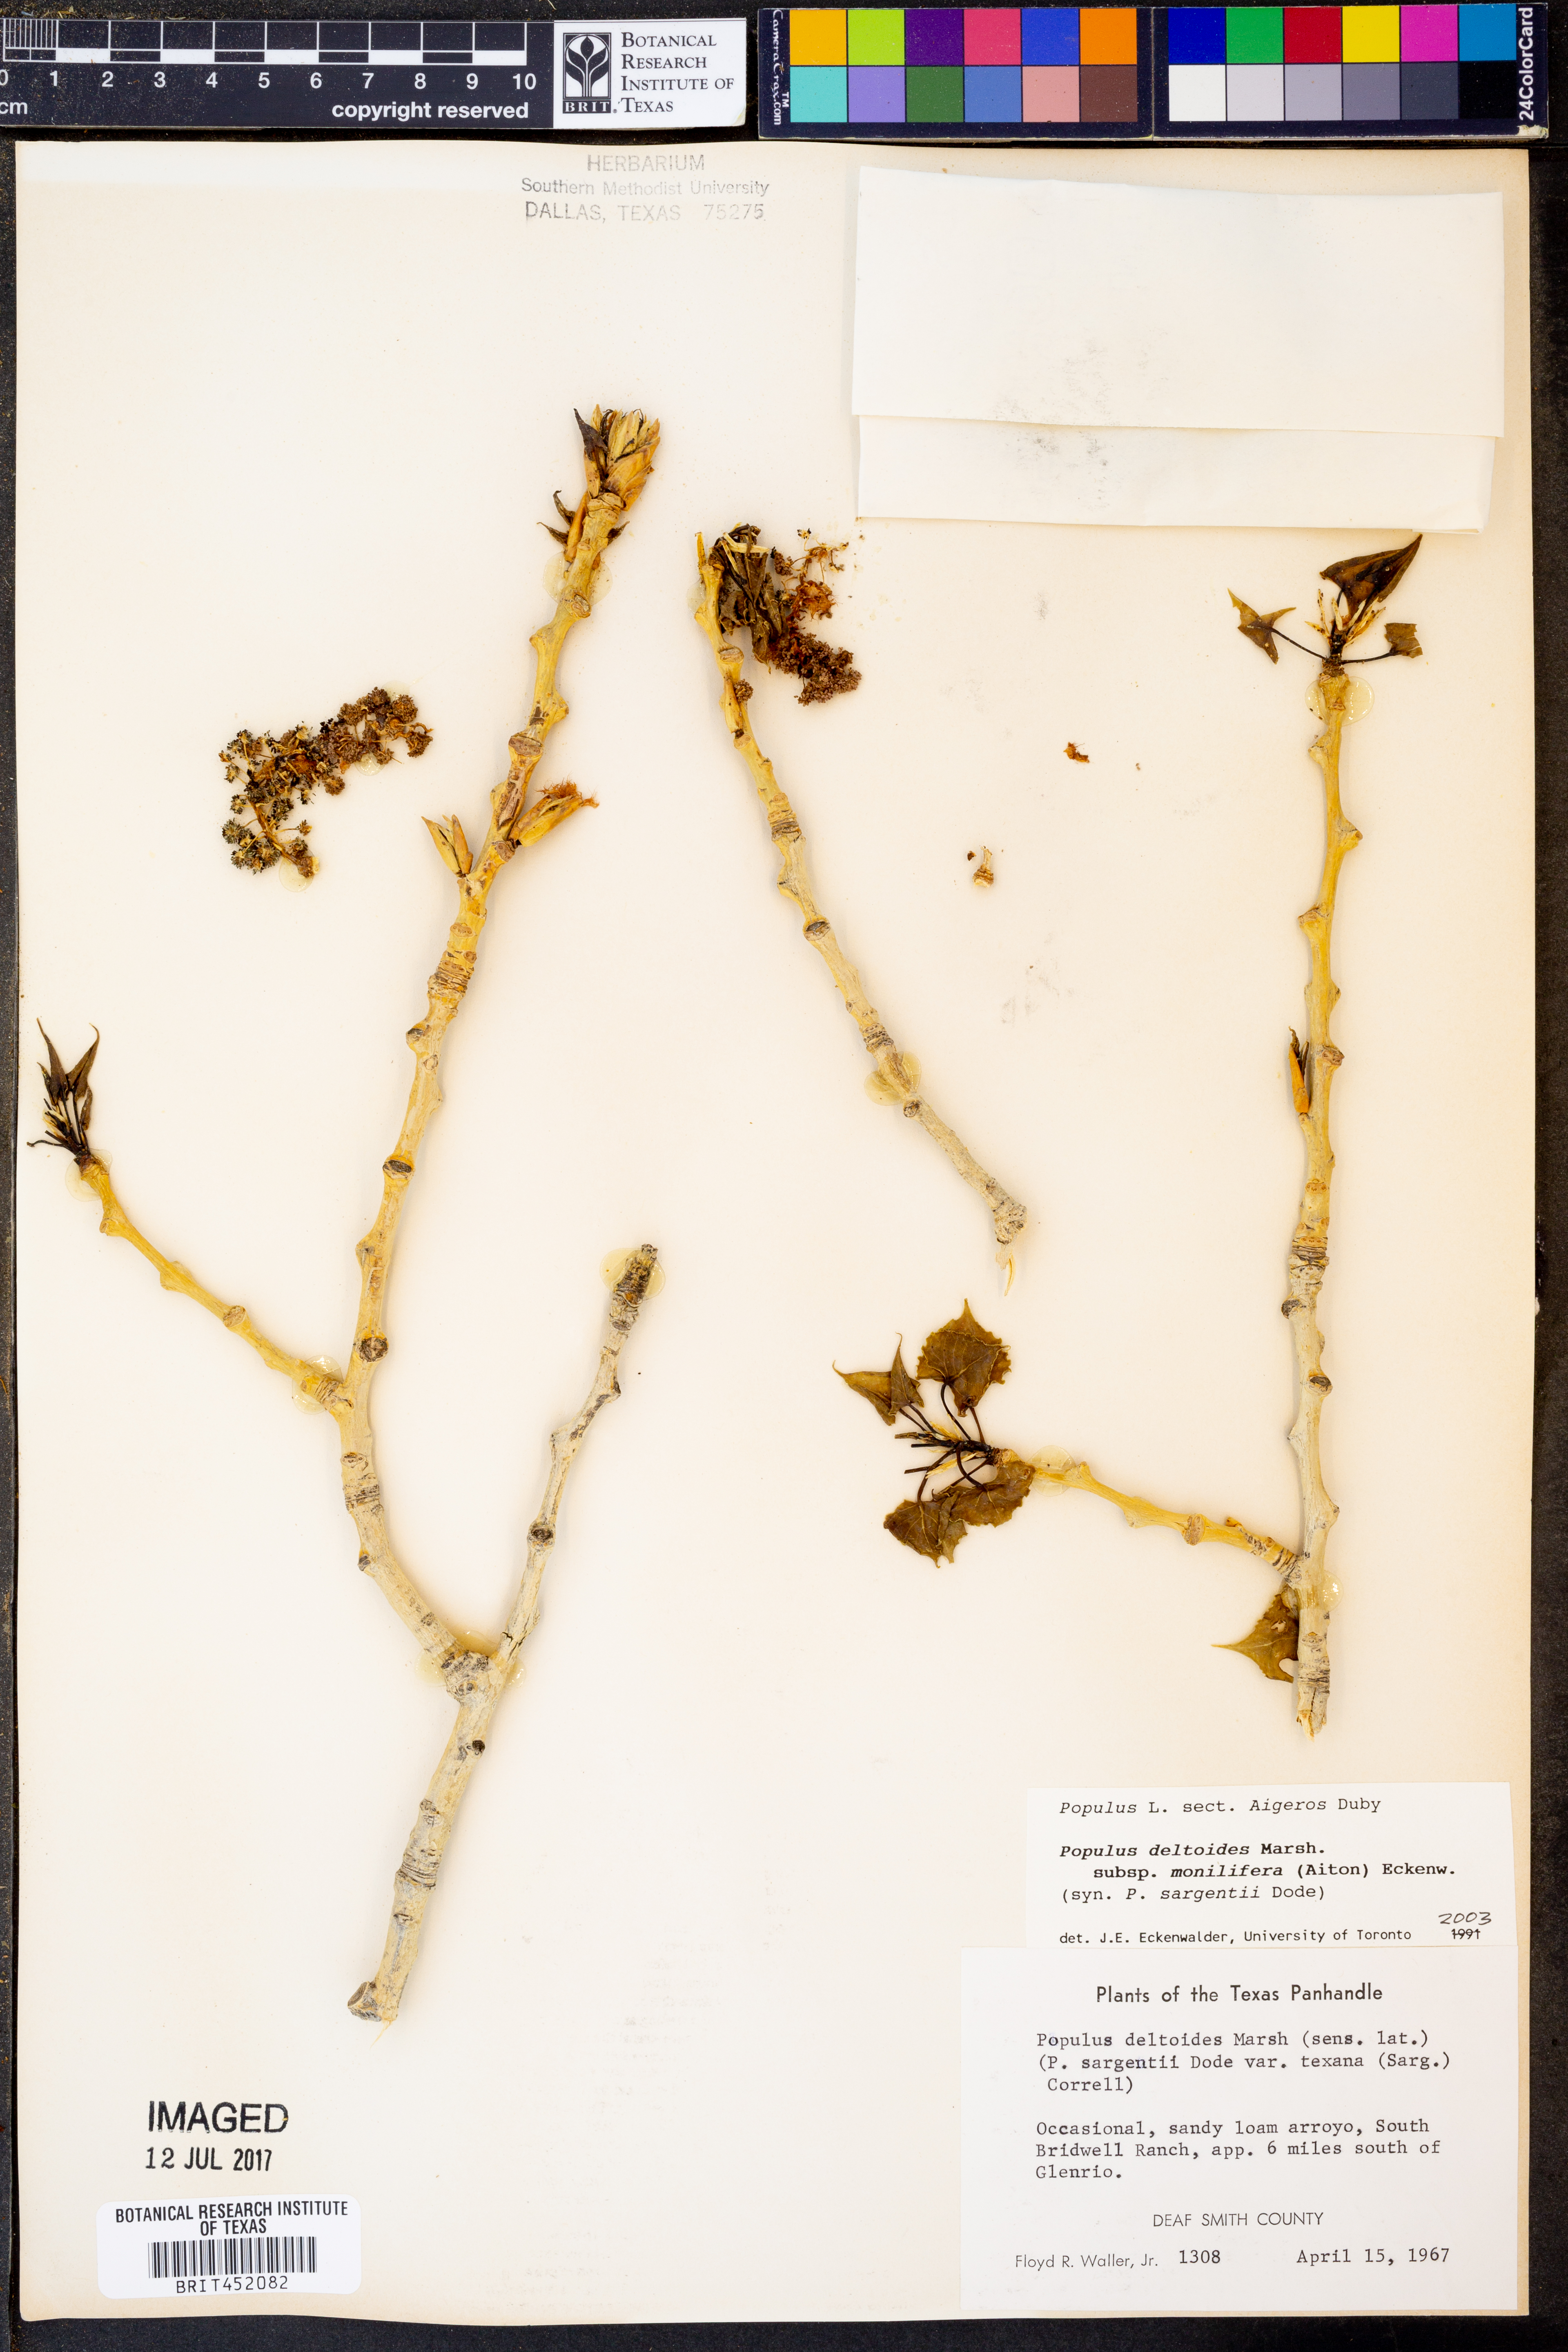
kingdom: Plantae
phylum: Tracheophyta
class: Magnoliopsida
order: Malpighiales
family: Salicaceae
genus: Populus
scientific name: Populus deltoides
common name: Eastern cottonwood
